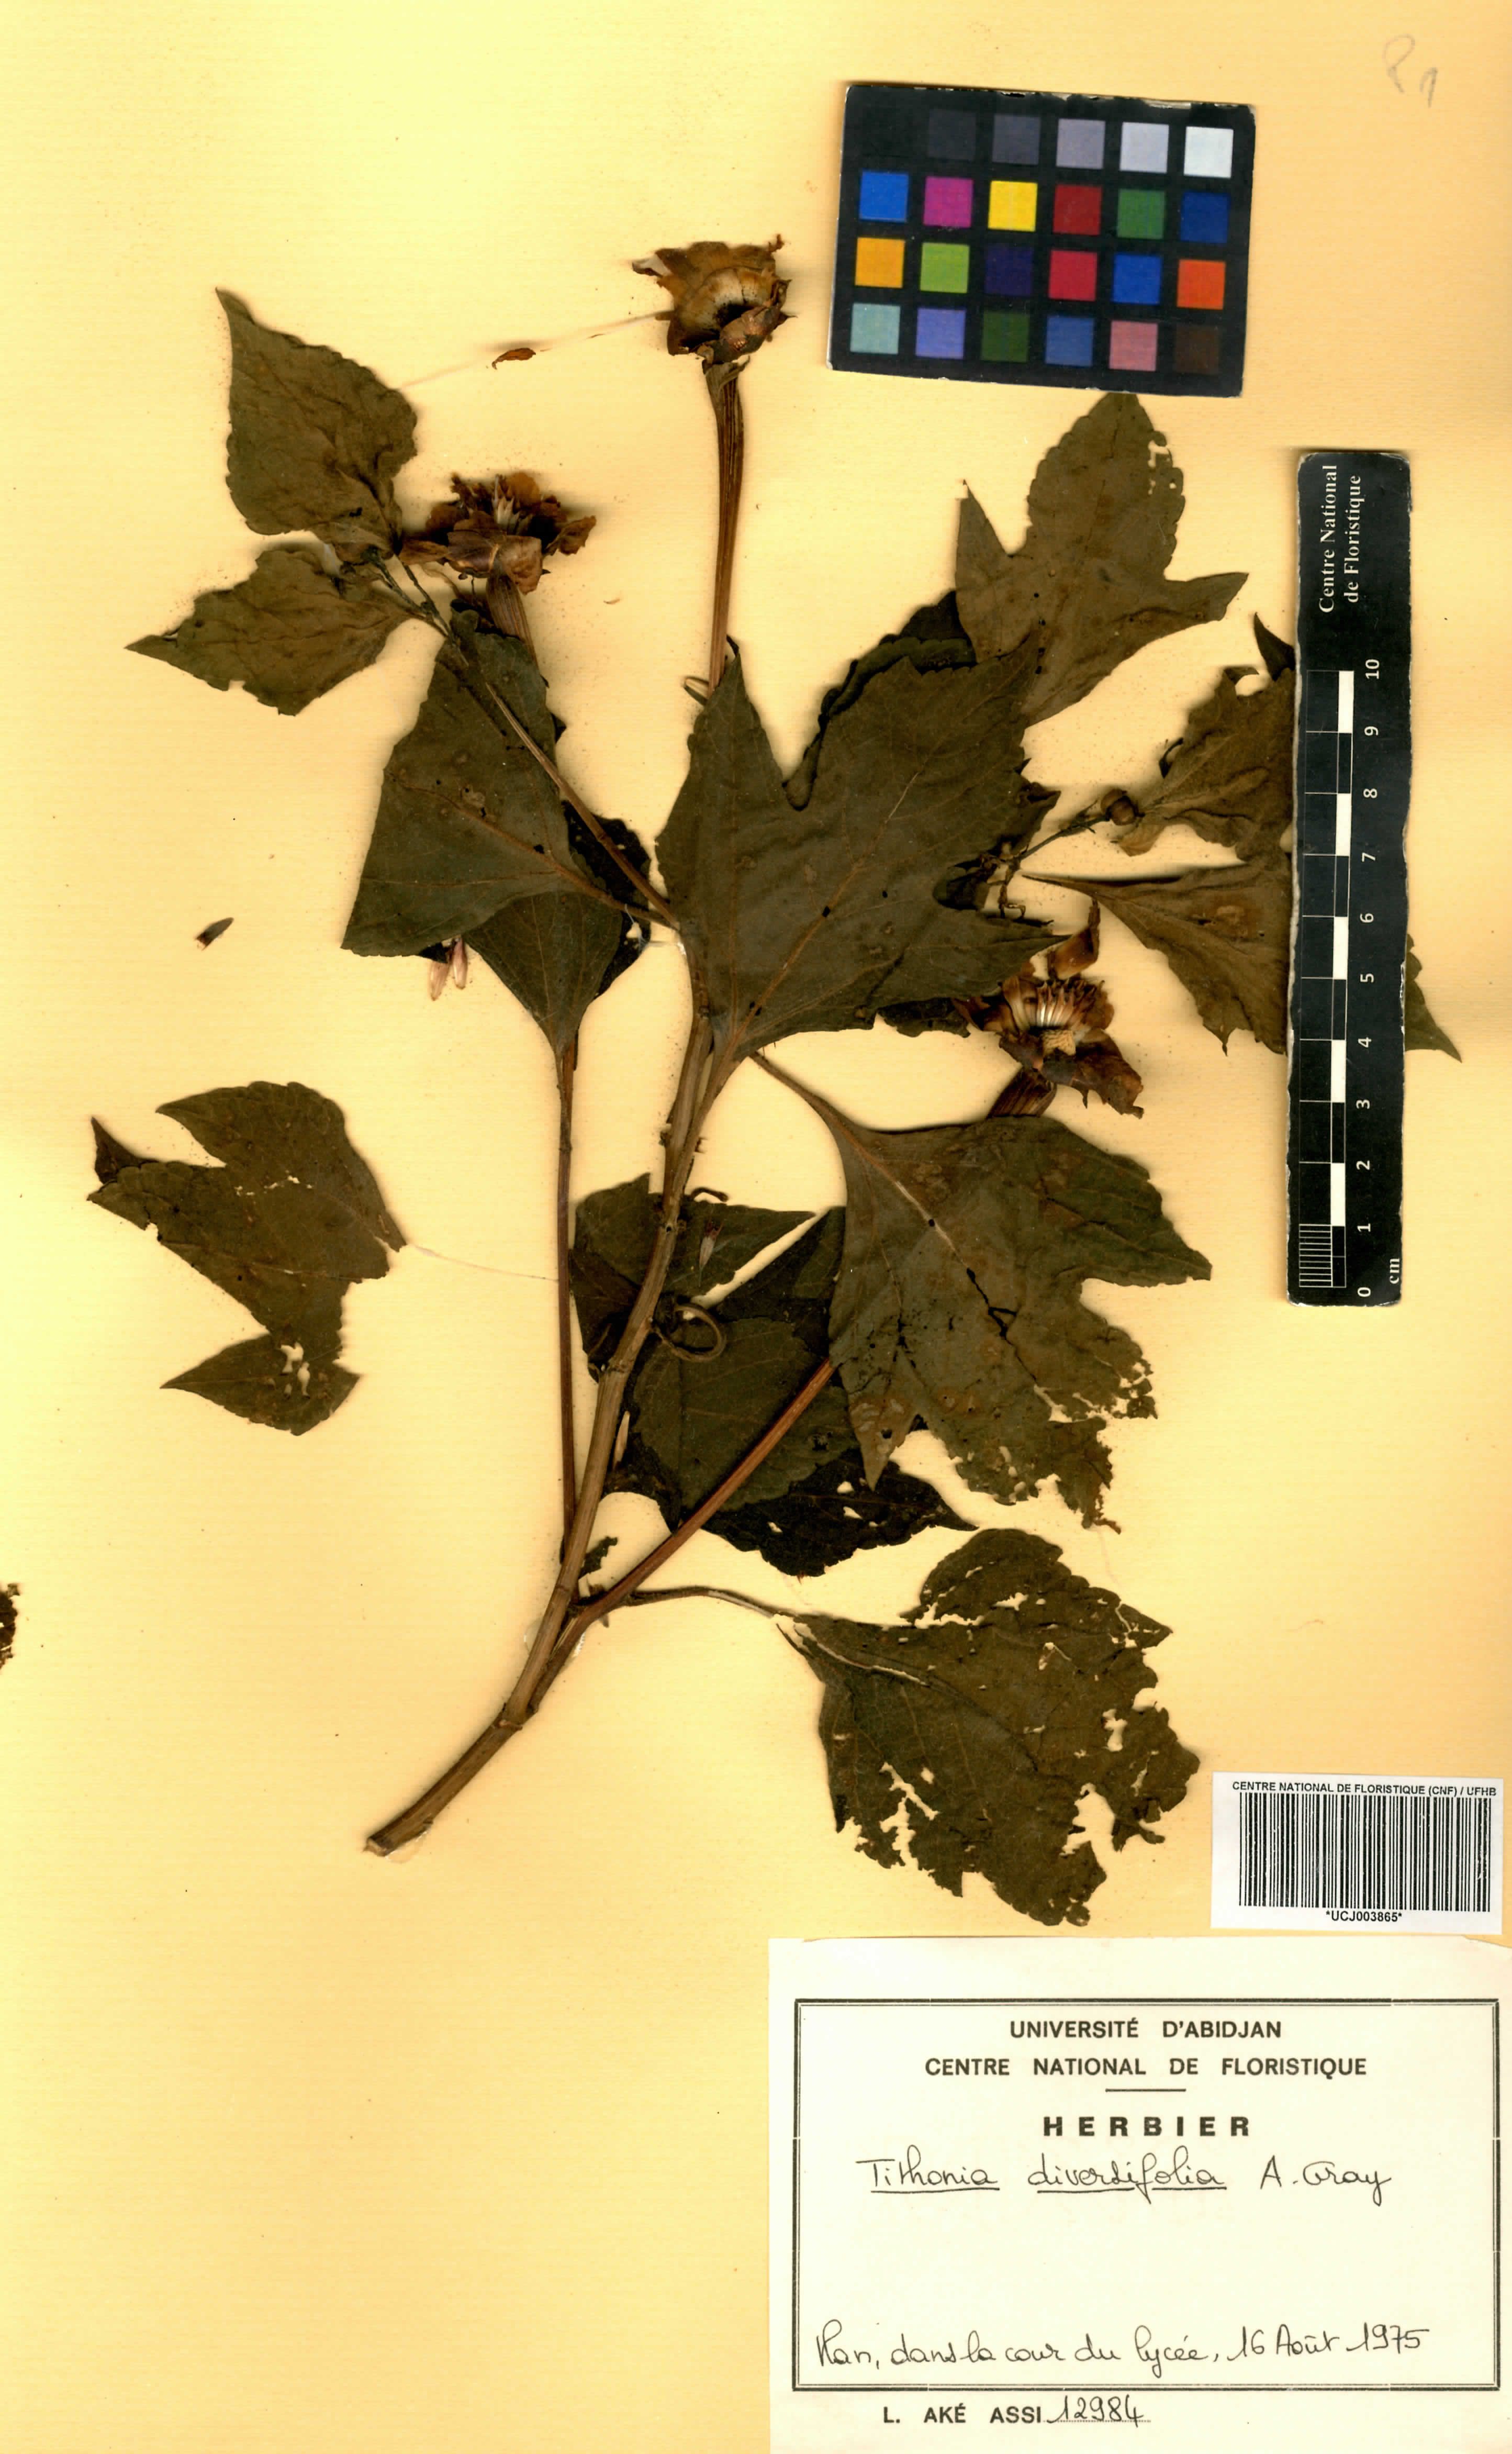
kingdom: Plantae
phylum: Tracheophyta
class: Magnoliopsida
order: Asterales
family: Asteraceae
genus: Tithonia
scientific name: Tithonia diversifolia
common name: Tree marigold
